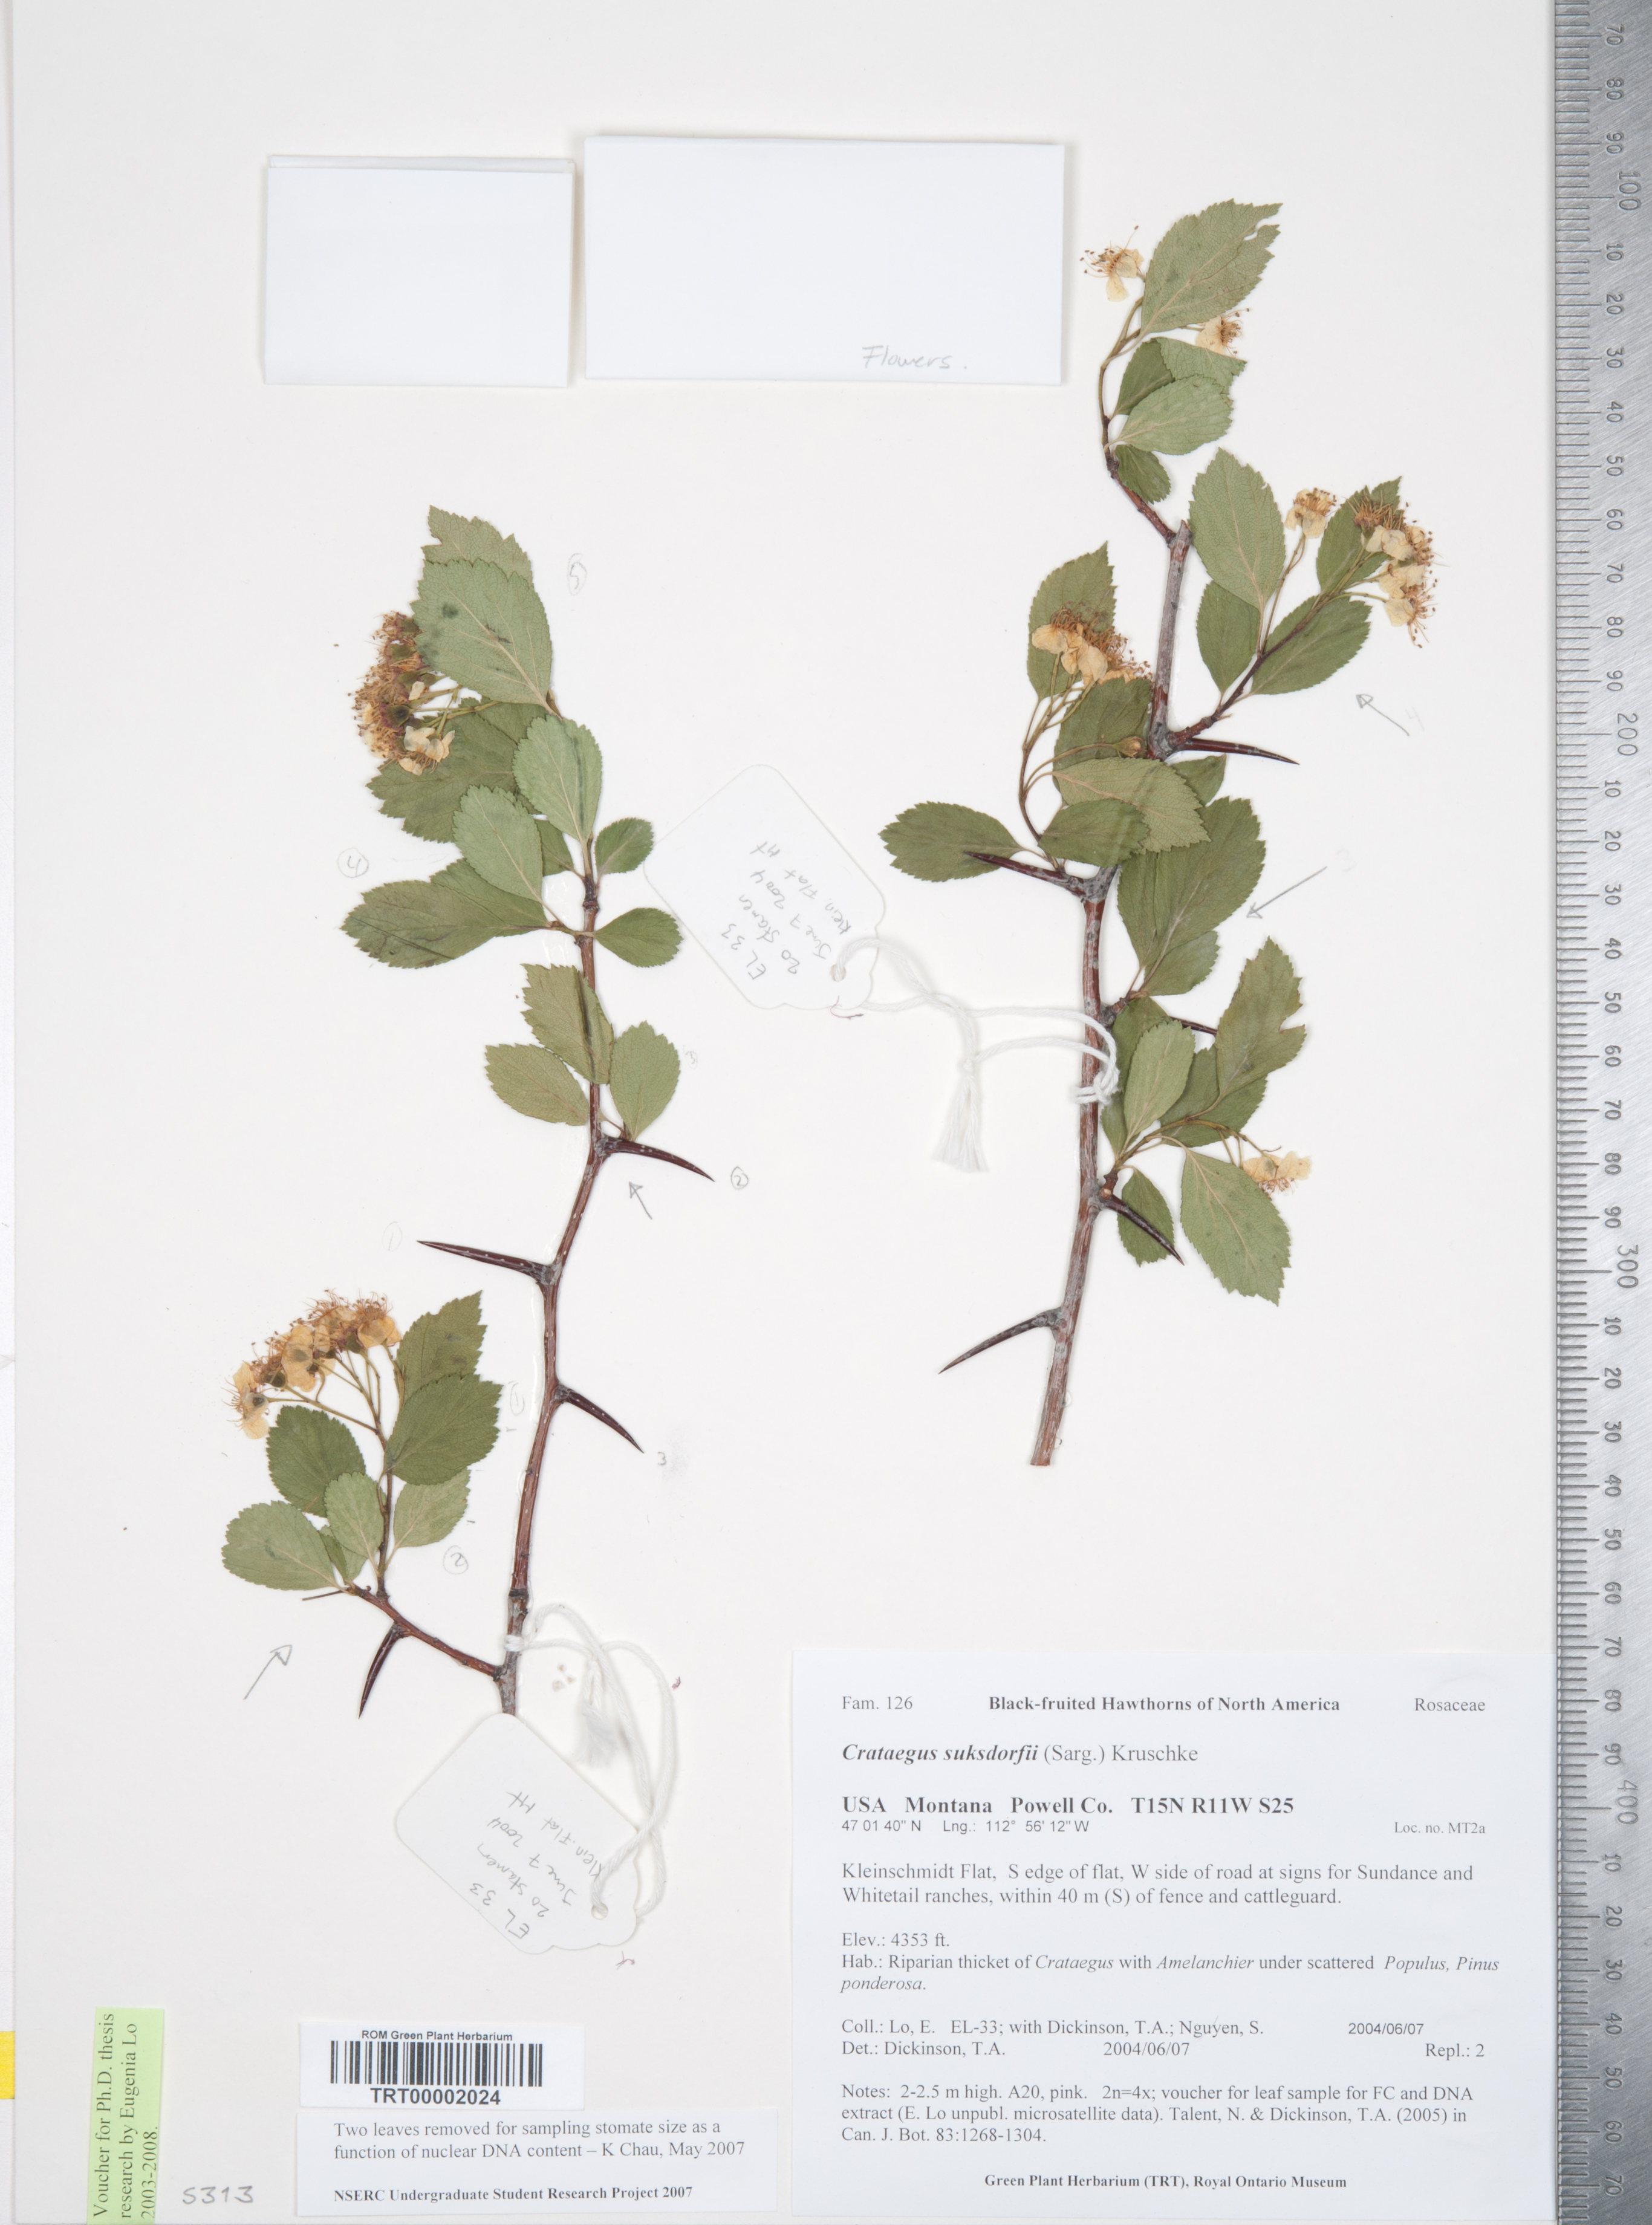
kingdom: Plantae
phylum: Tracheophyta
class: Magnoliopsida
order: Rosales
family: Rosaceae
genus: Crataegus
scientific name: Crataegus gaylussacia
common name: Huckleberry hawthorn
